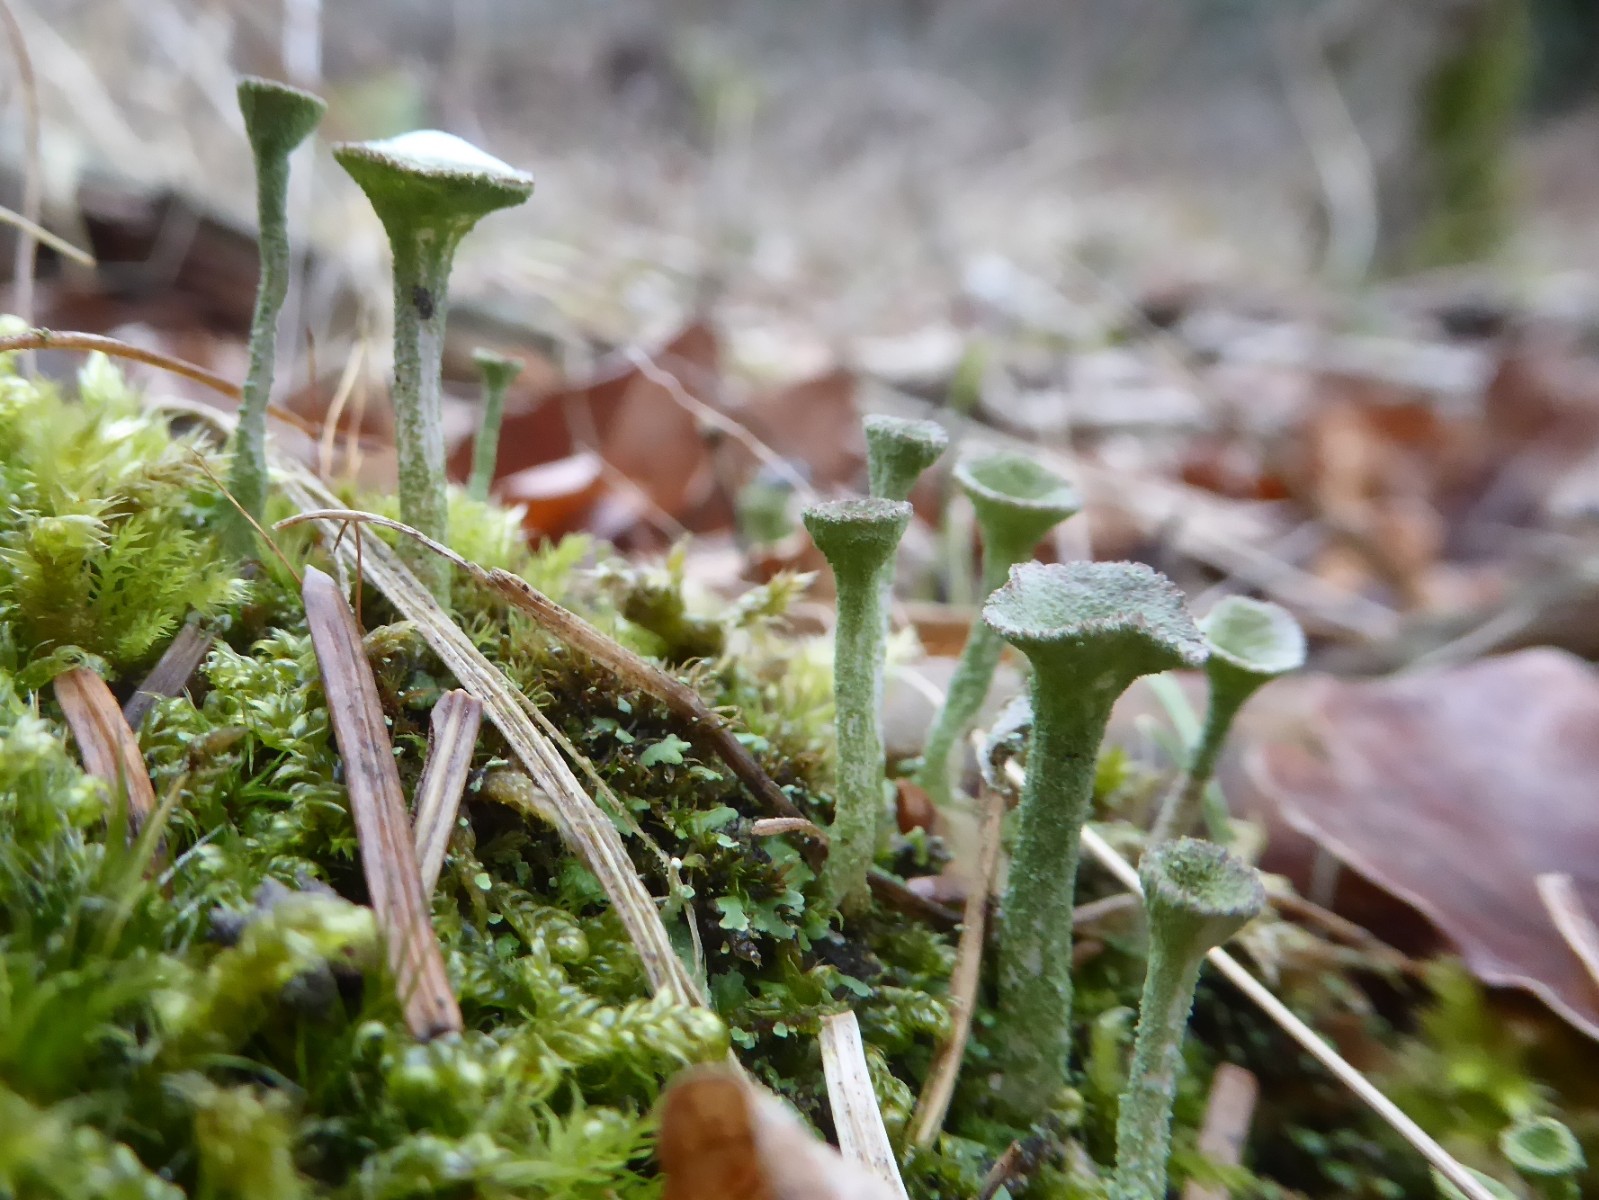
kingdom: Fungi
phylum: Ascomycota
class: Lecanoromycetes
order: Lecanorales
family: Cladoniaceae
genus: Cladonia
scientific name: Cladonia fimbriata
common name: bleggrøn bægerlav
